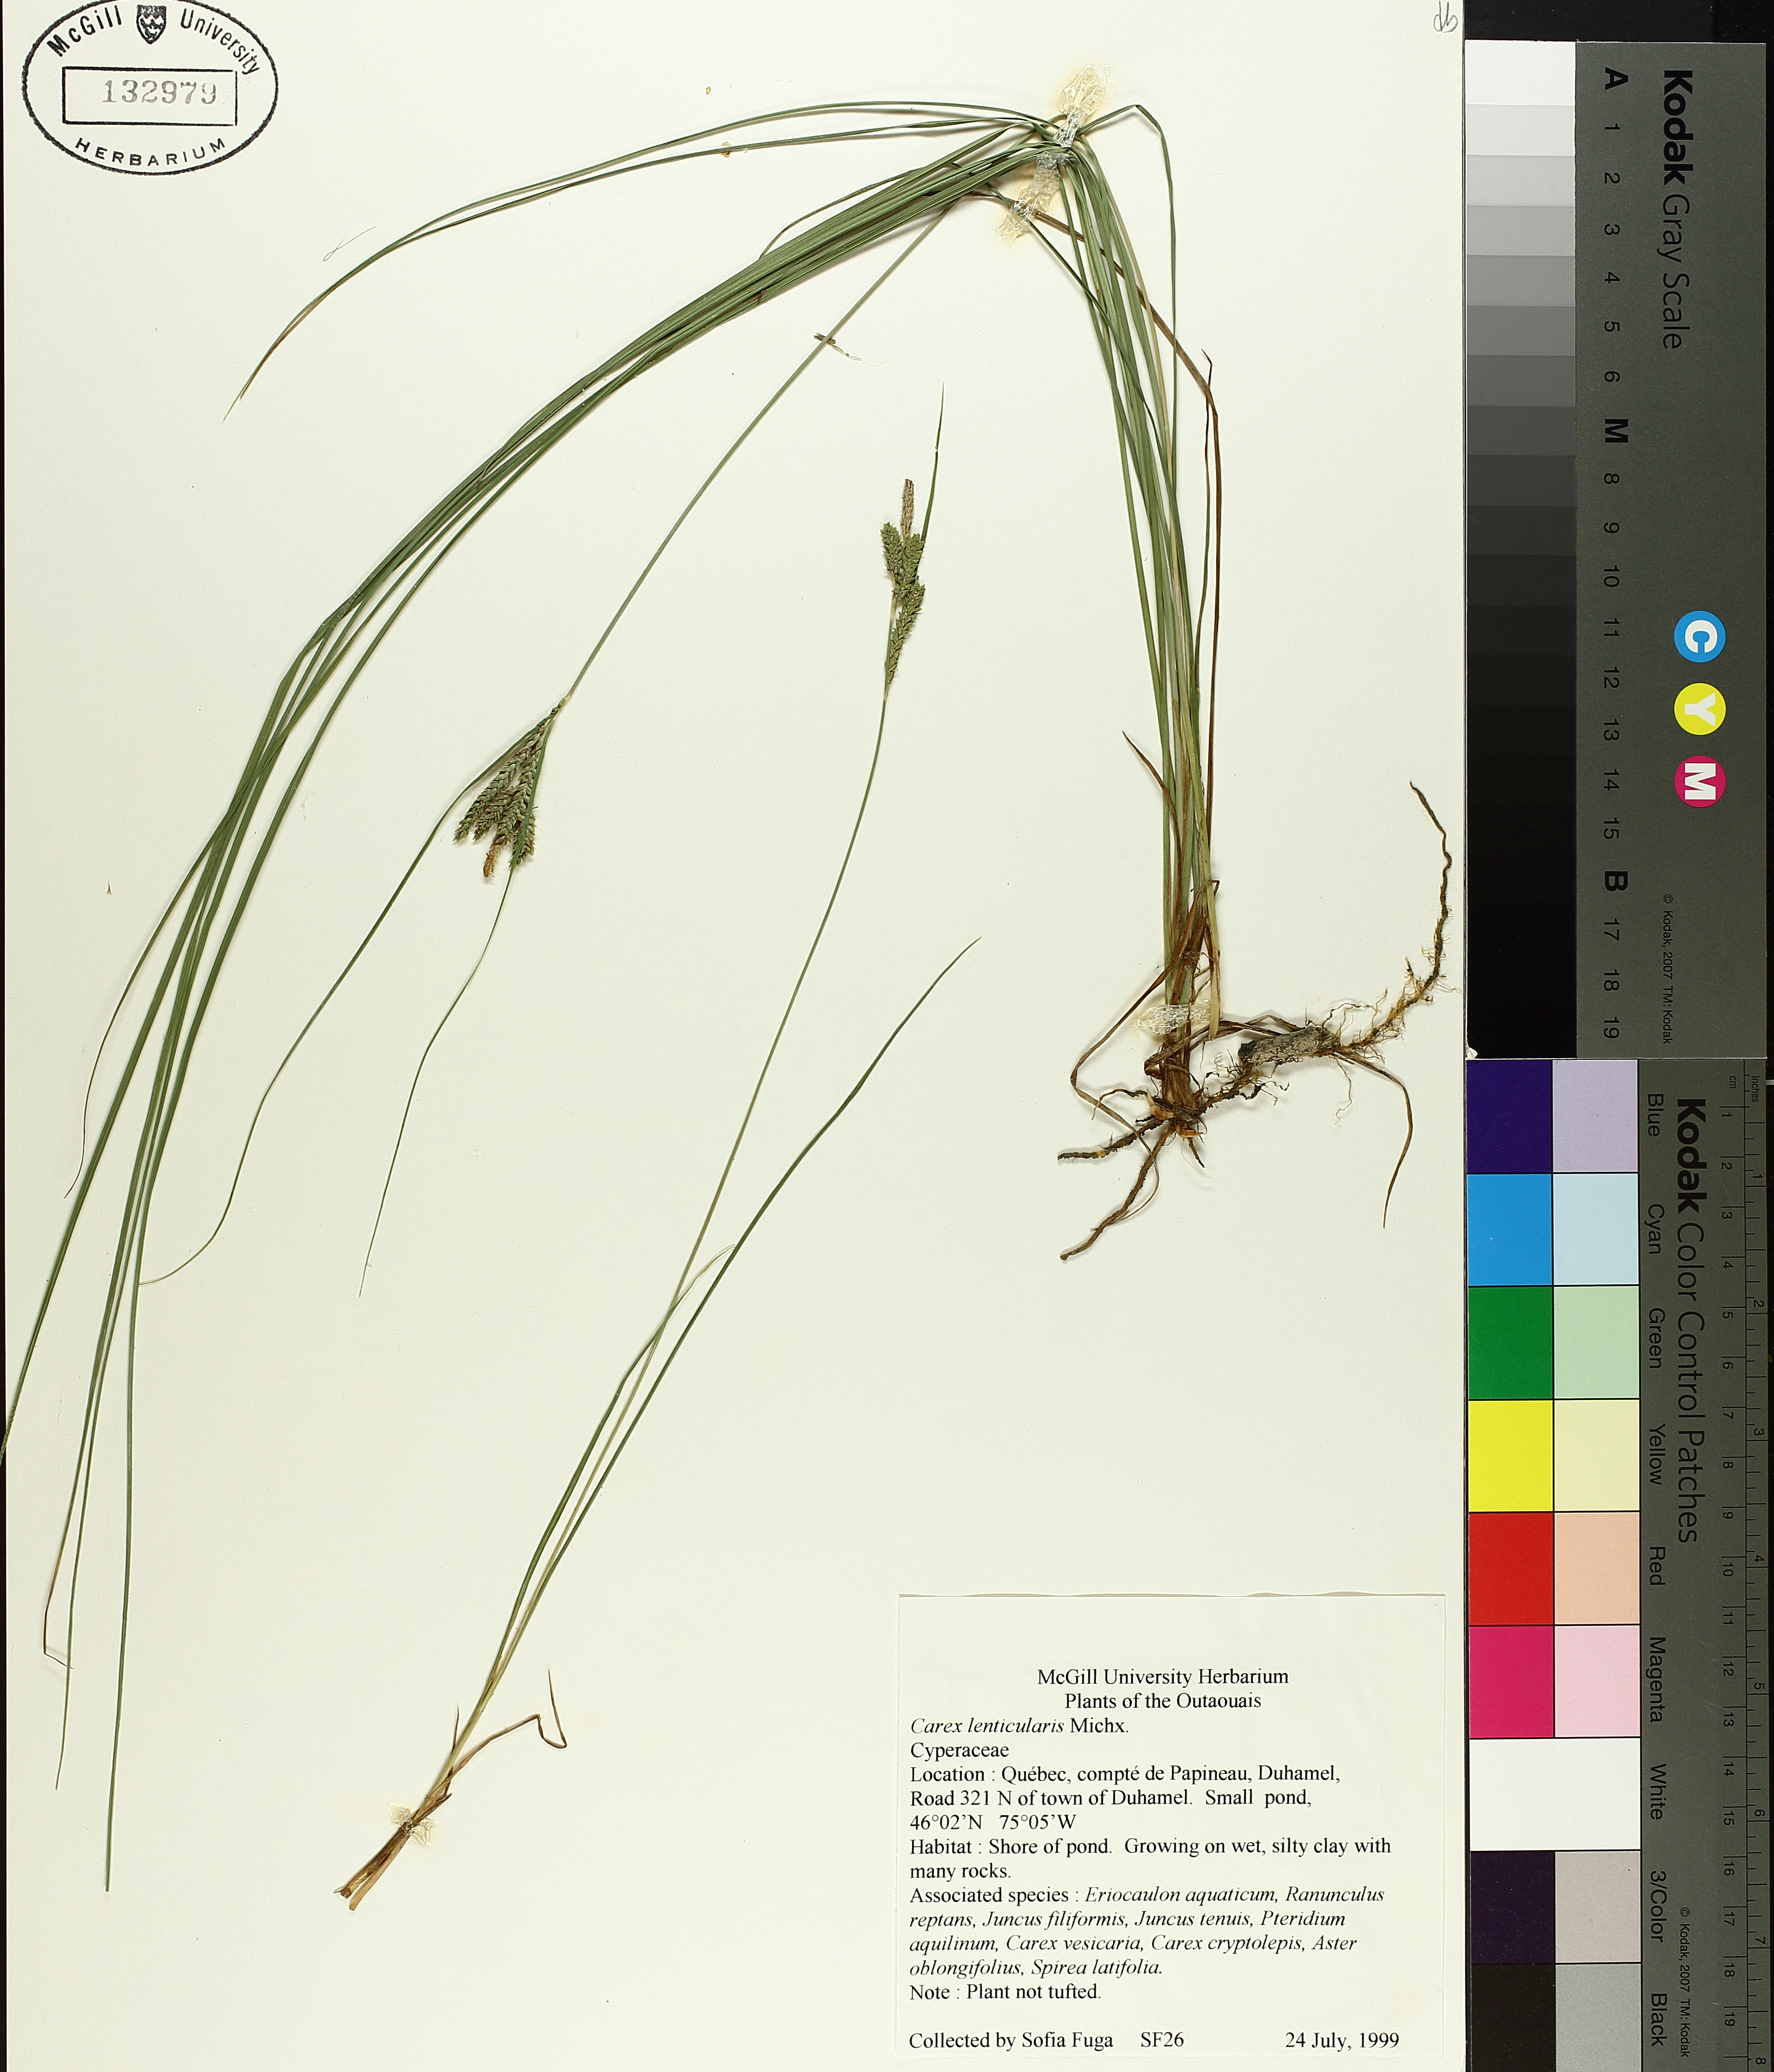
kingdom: Plantae
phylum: Tracheophyta
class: Liliopsida
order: Poales
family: Cyperaceae
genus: Carex
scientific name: Carex lenticularis
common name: Lakeshore sedge
